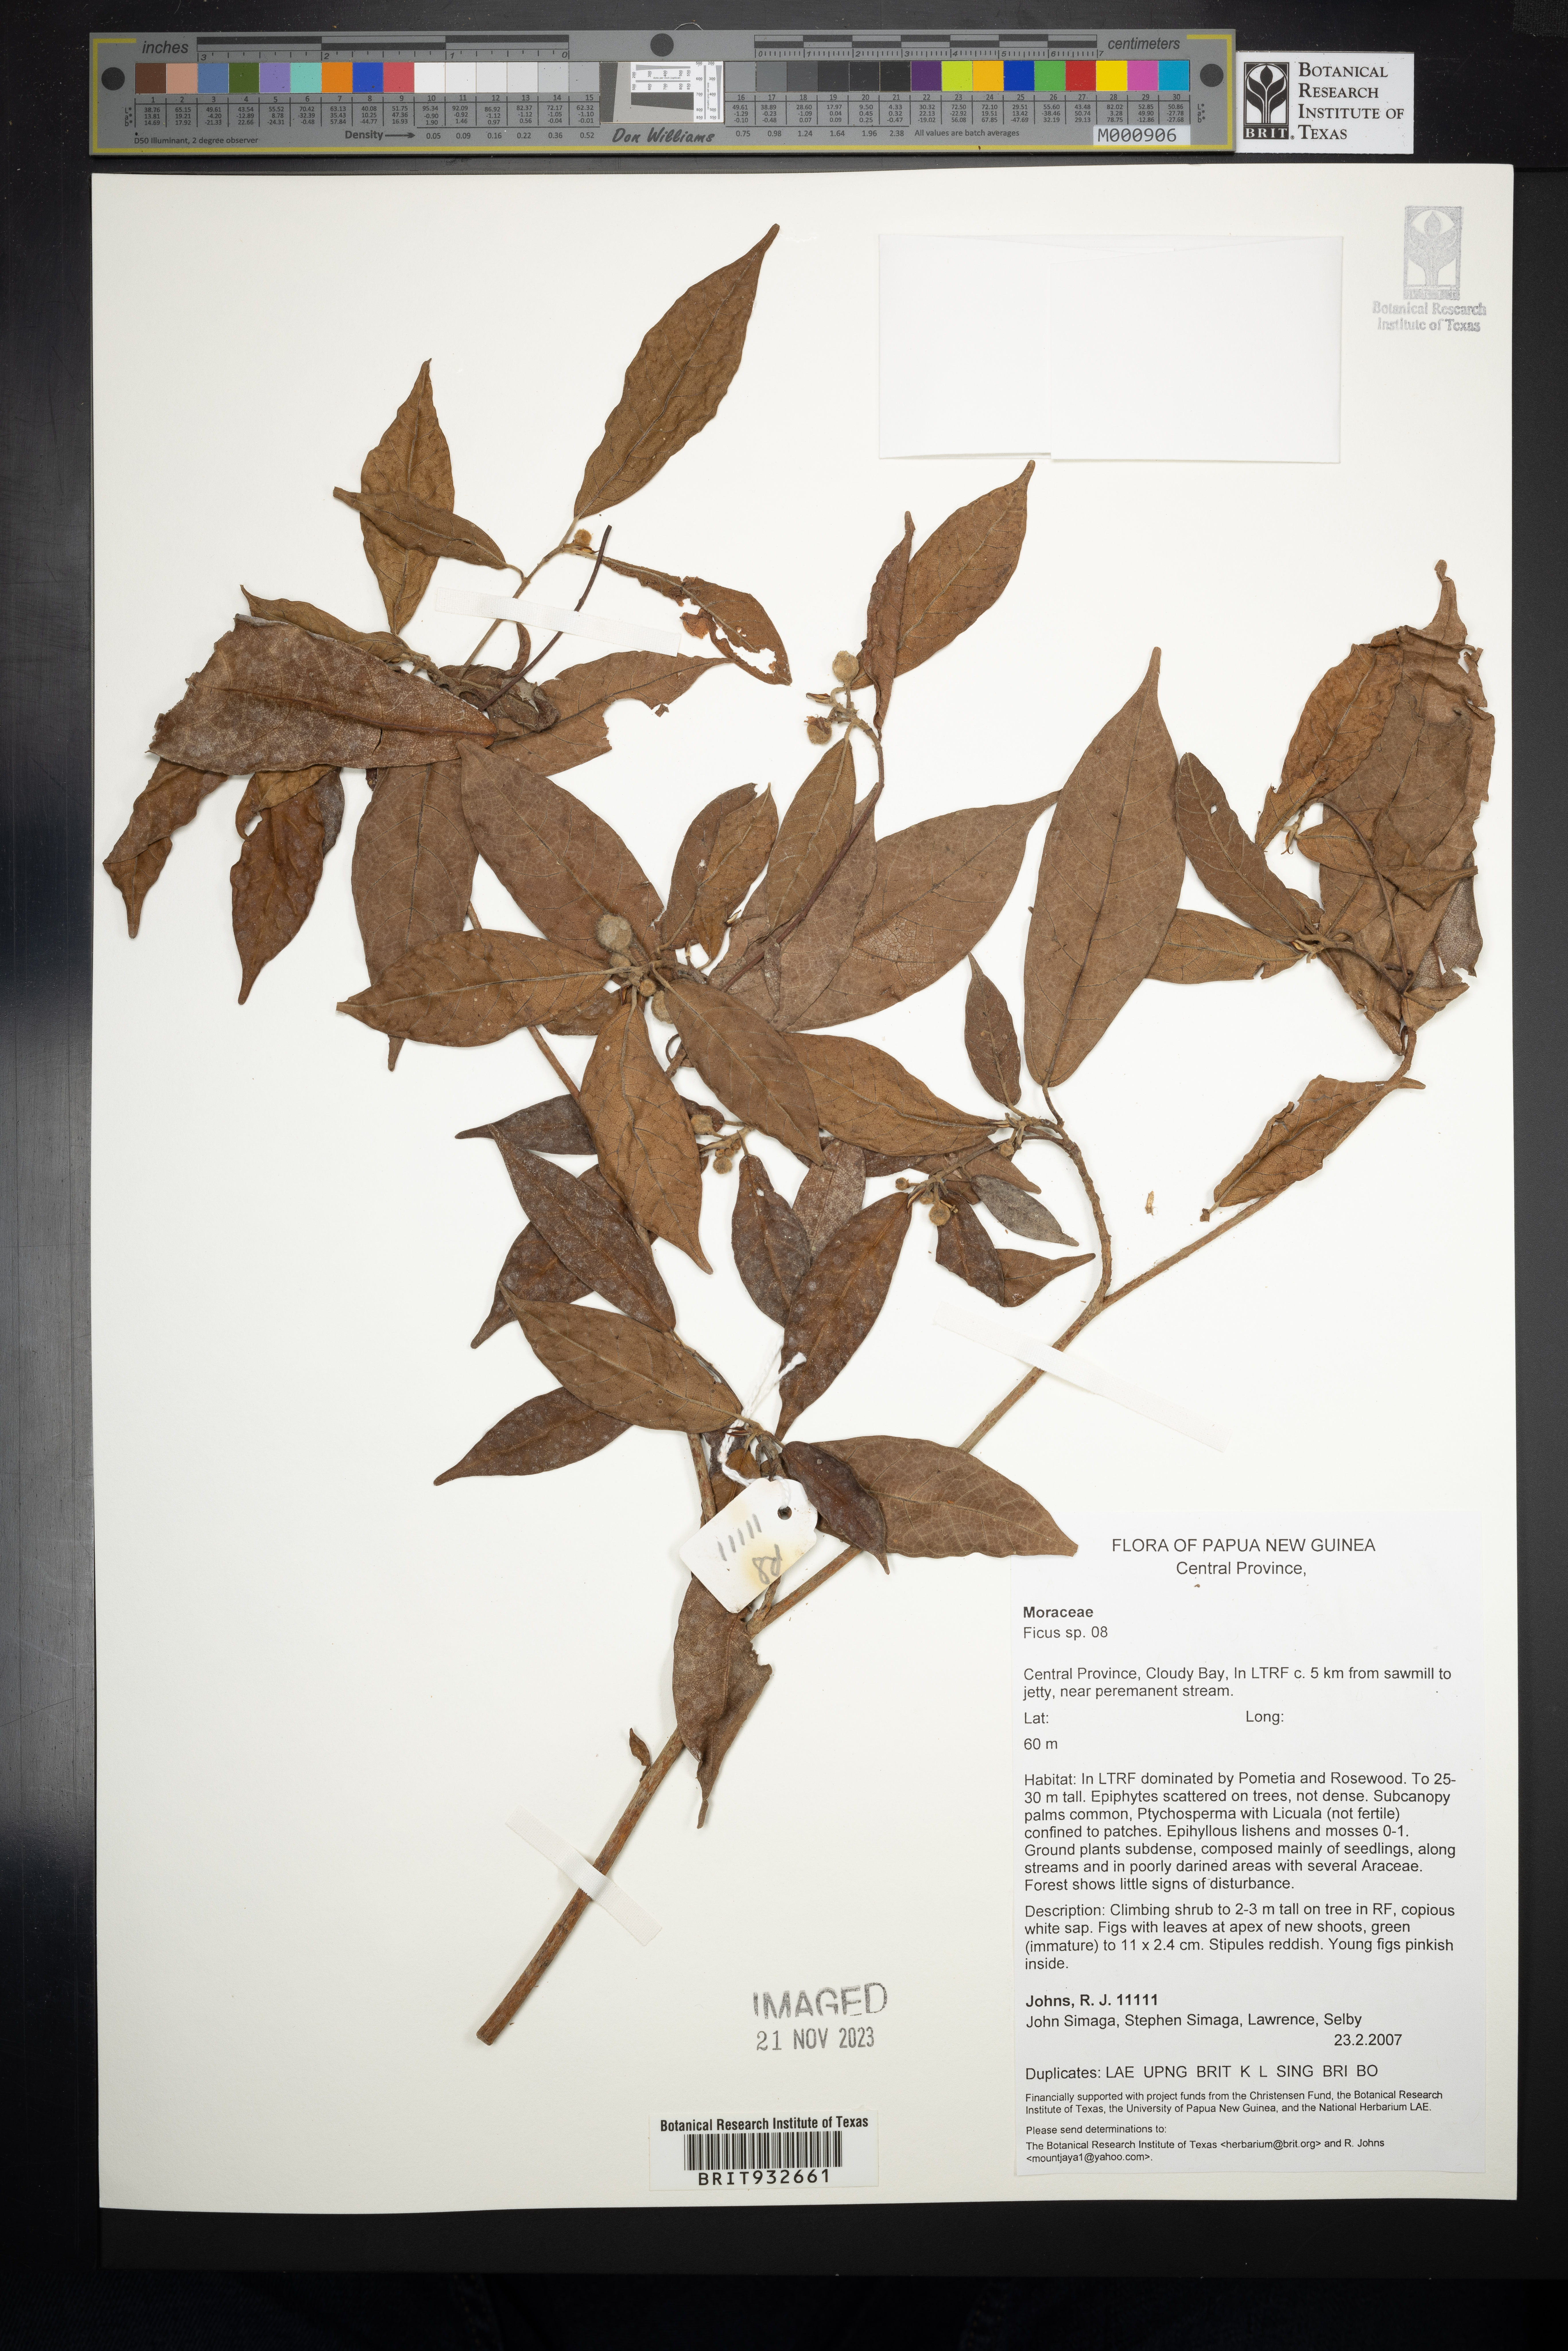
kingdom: Plantae
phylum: Tracheophyta
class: Magnoliopsida
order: Rosales
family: Moraceae
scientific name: Moraceae
